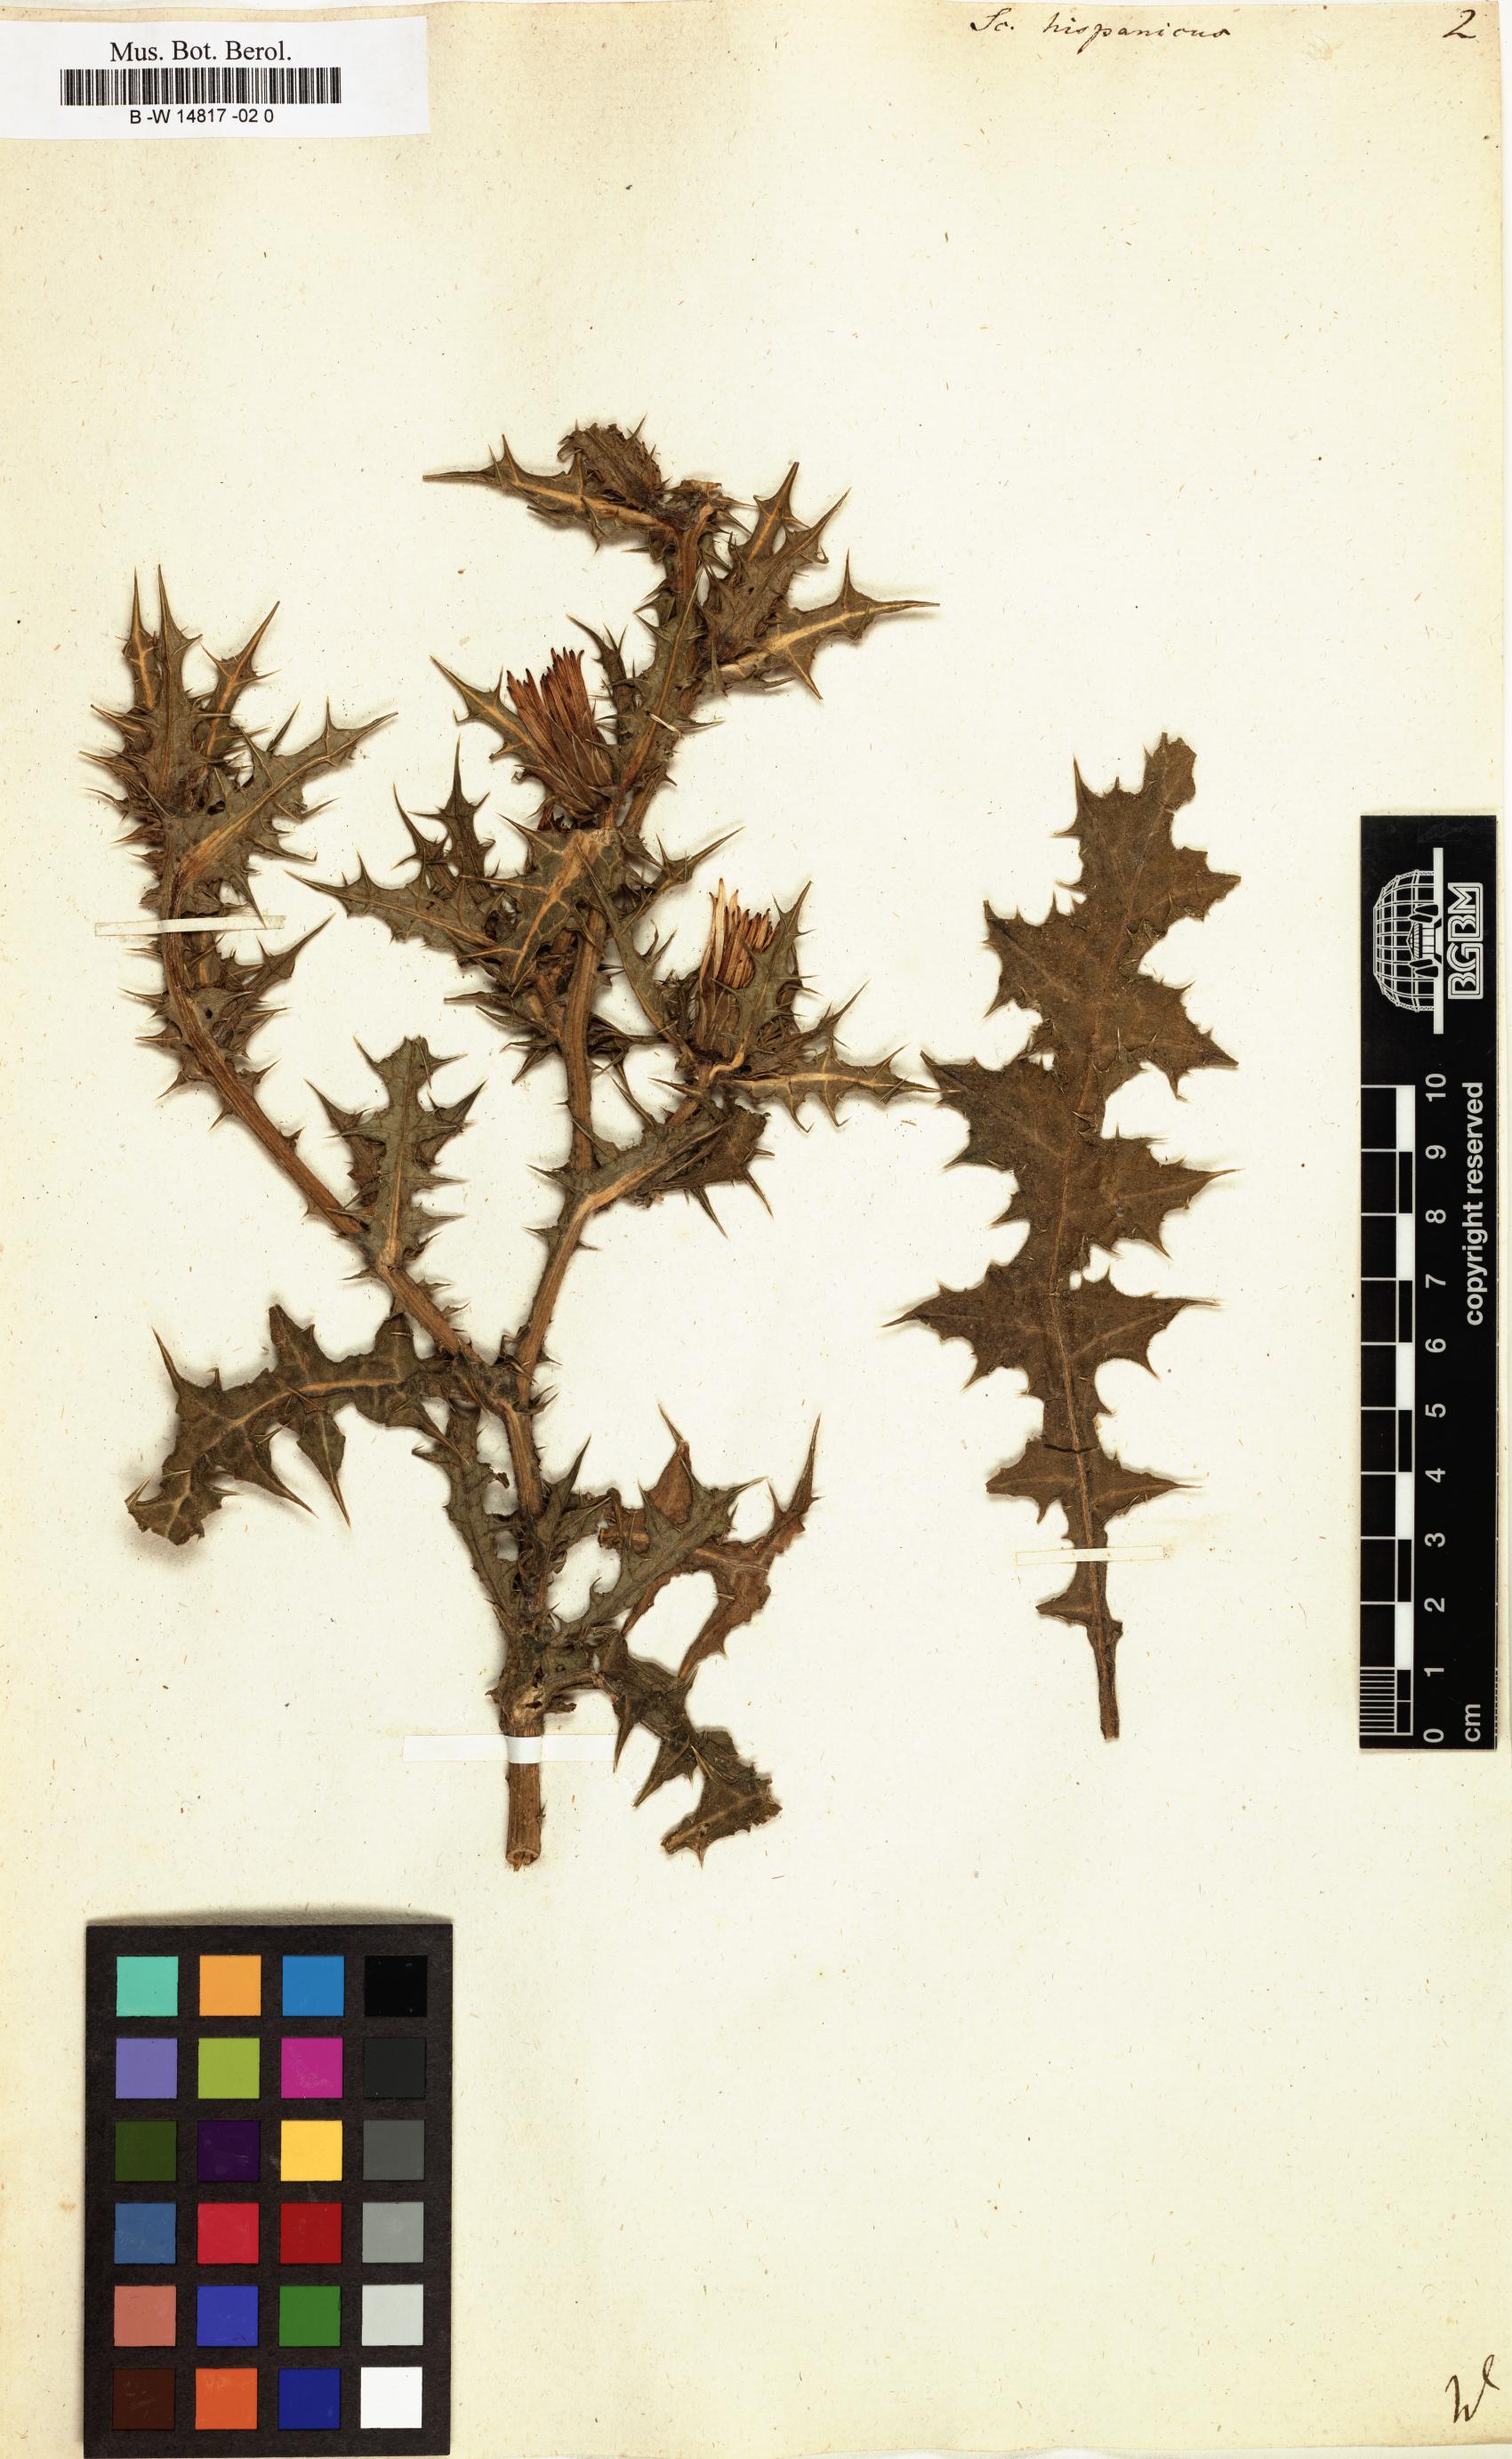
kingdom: Plantae
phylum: Tracheophyta
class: Magnoliopsida
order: Asterales
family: Asteraceae
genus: Scolymus
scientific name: Scolymus hispanicus
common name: Golden thistle
